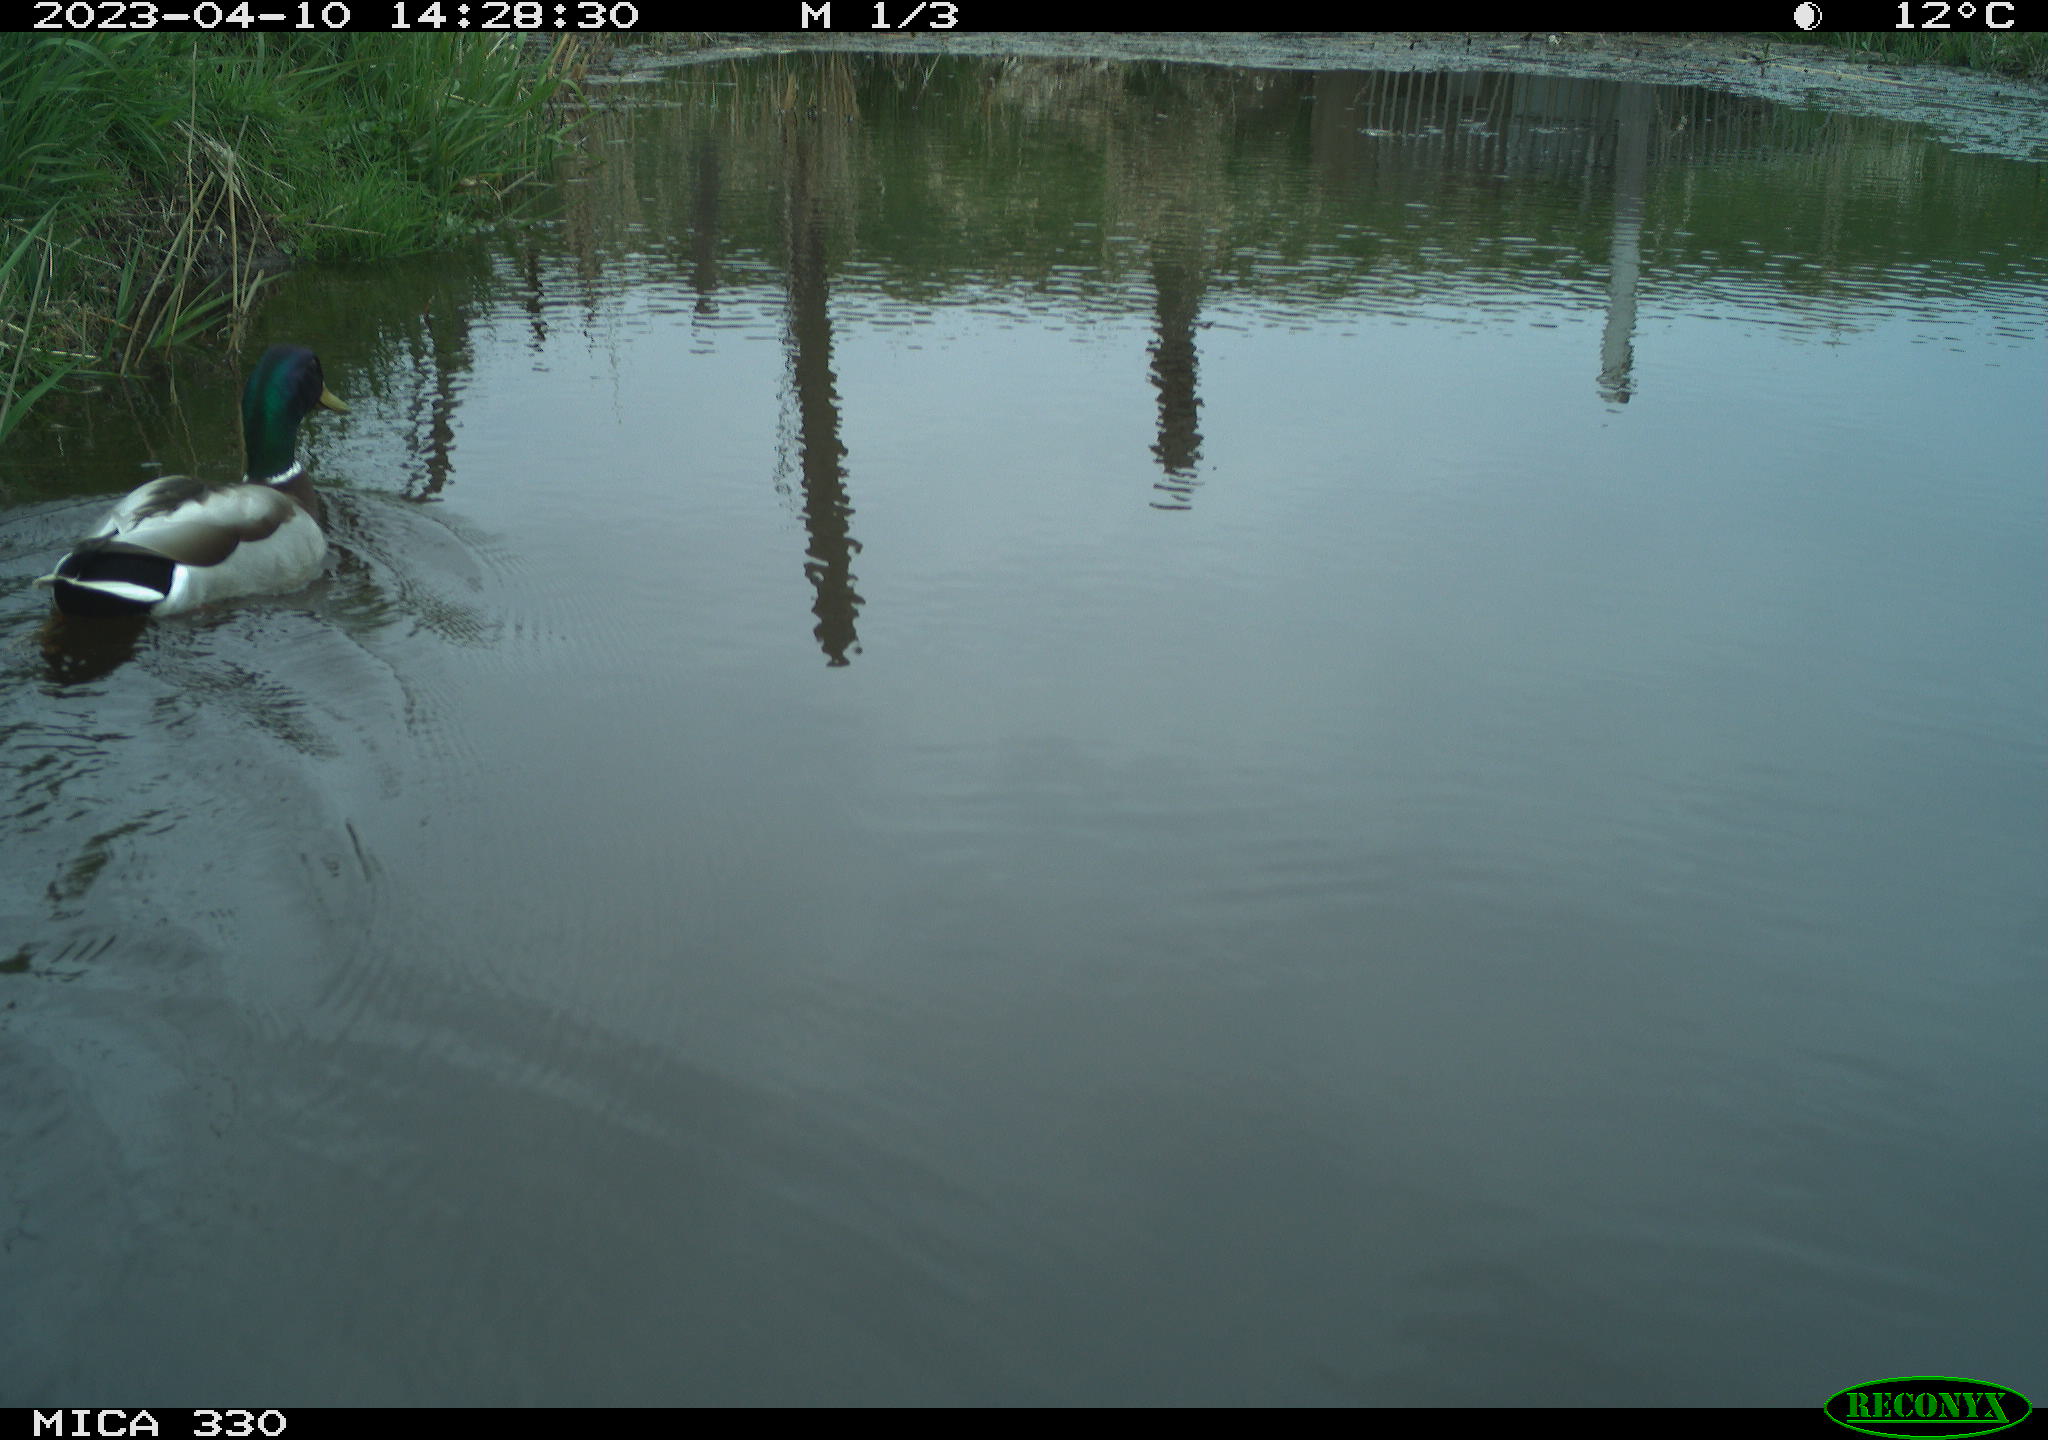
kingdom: Animalia
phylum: Chordata
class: Aves
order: Anseriformes
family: Anatidae
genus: Anas
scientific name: Anas
